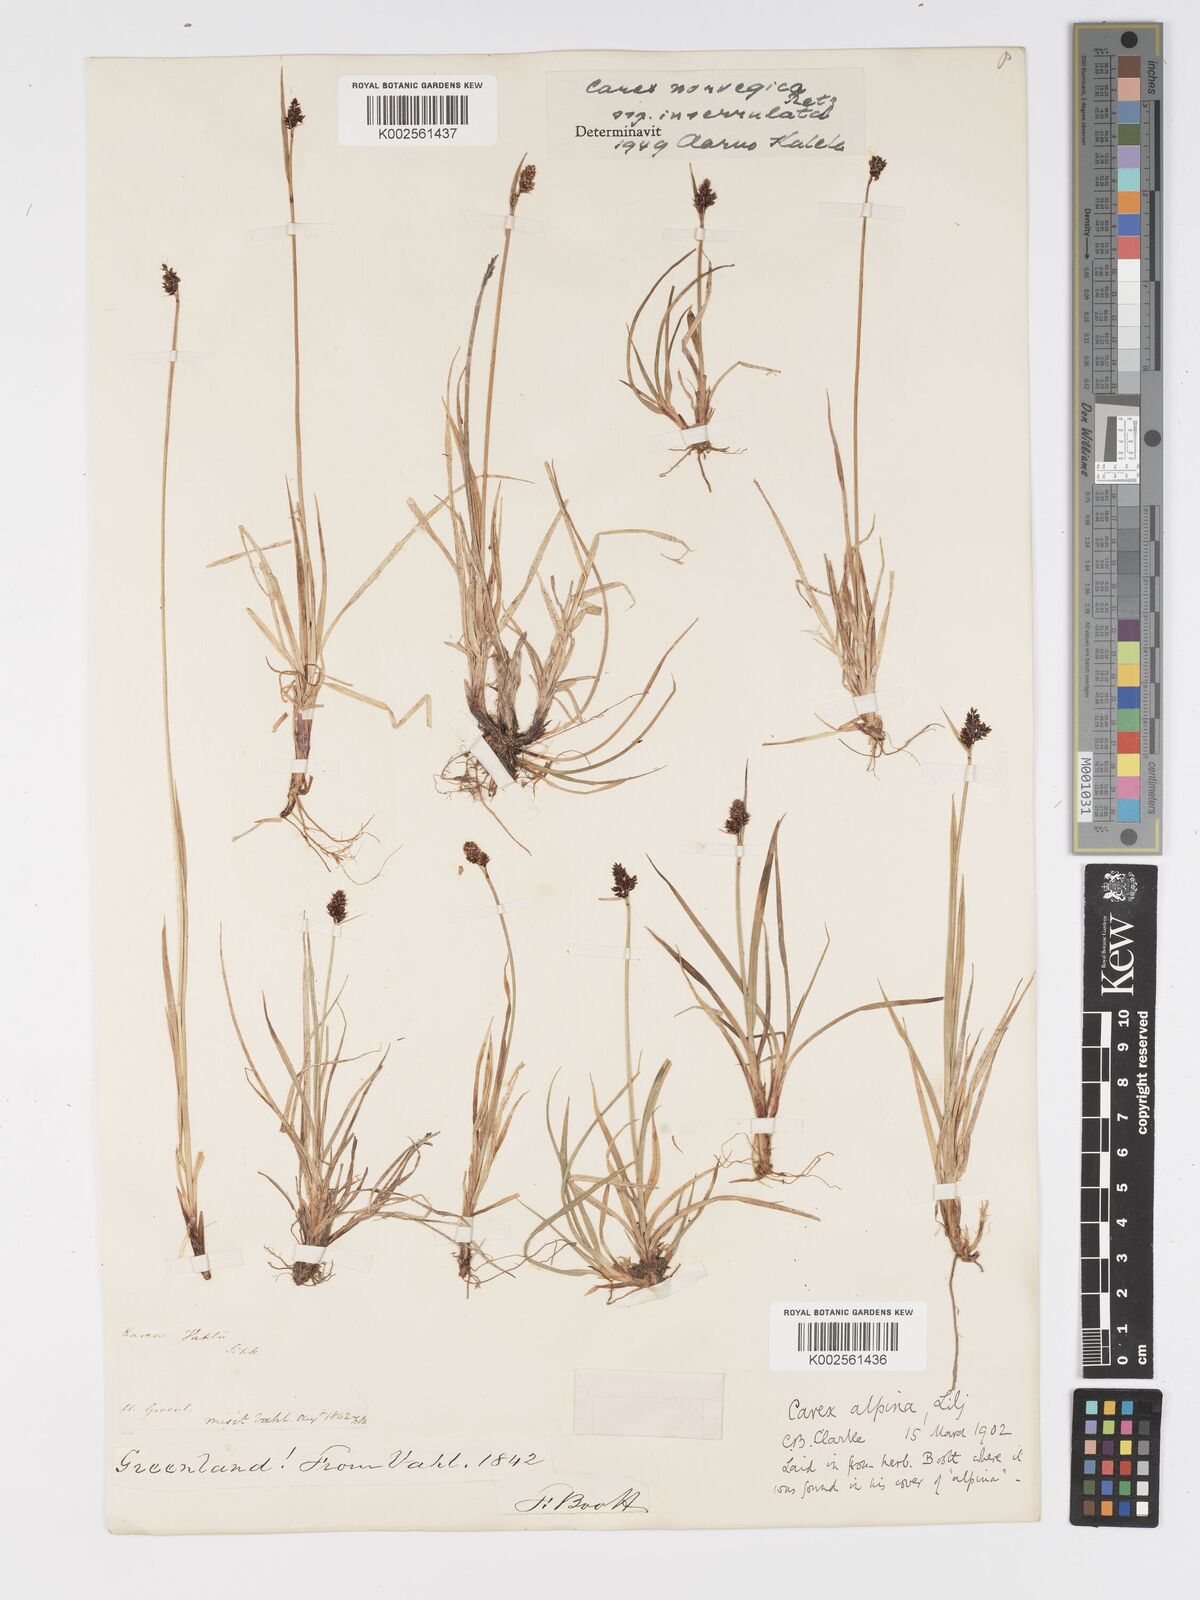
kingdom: Plantae
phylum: Tracheophyta
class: Liliopsida
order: Poales
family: Cyperaceae
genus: Carex
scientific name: Carex norvegica
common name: Close-headed alpine-sedge
